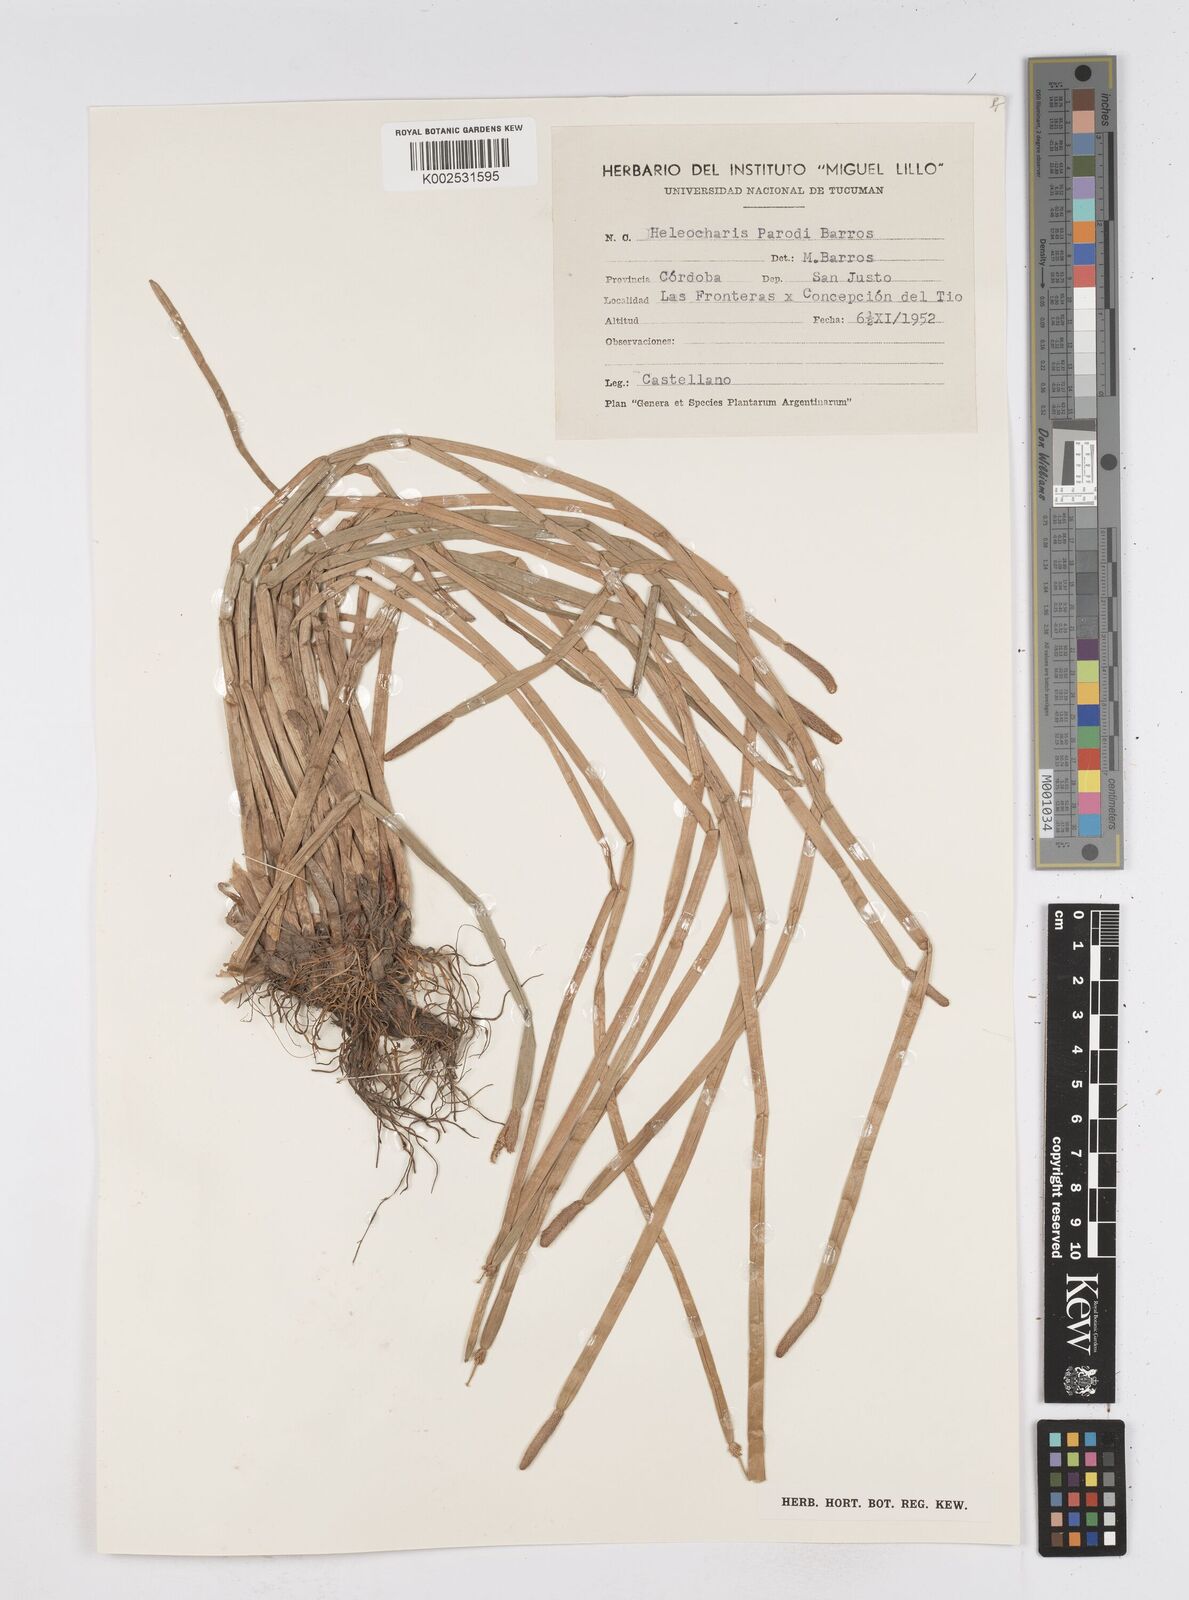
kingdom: Plantae
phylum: Tracheophyta
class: Liliopsida
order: Poales
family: Cyperaceae
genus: Eleocharis
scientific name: Eleocharis parodii
